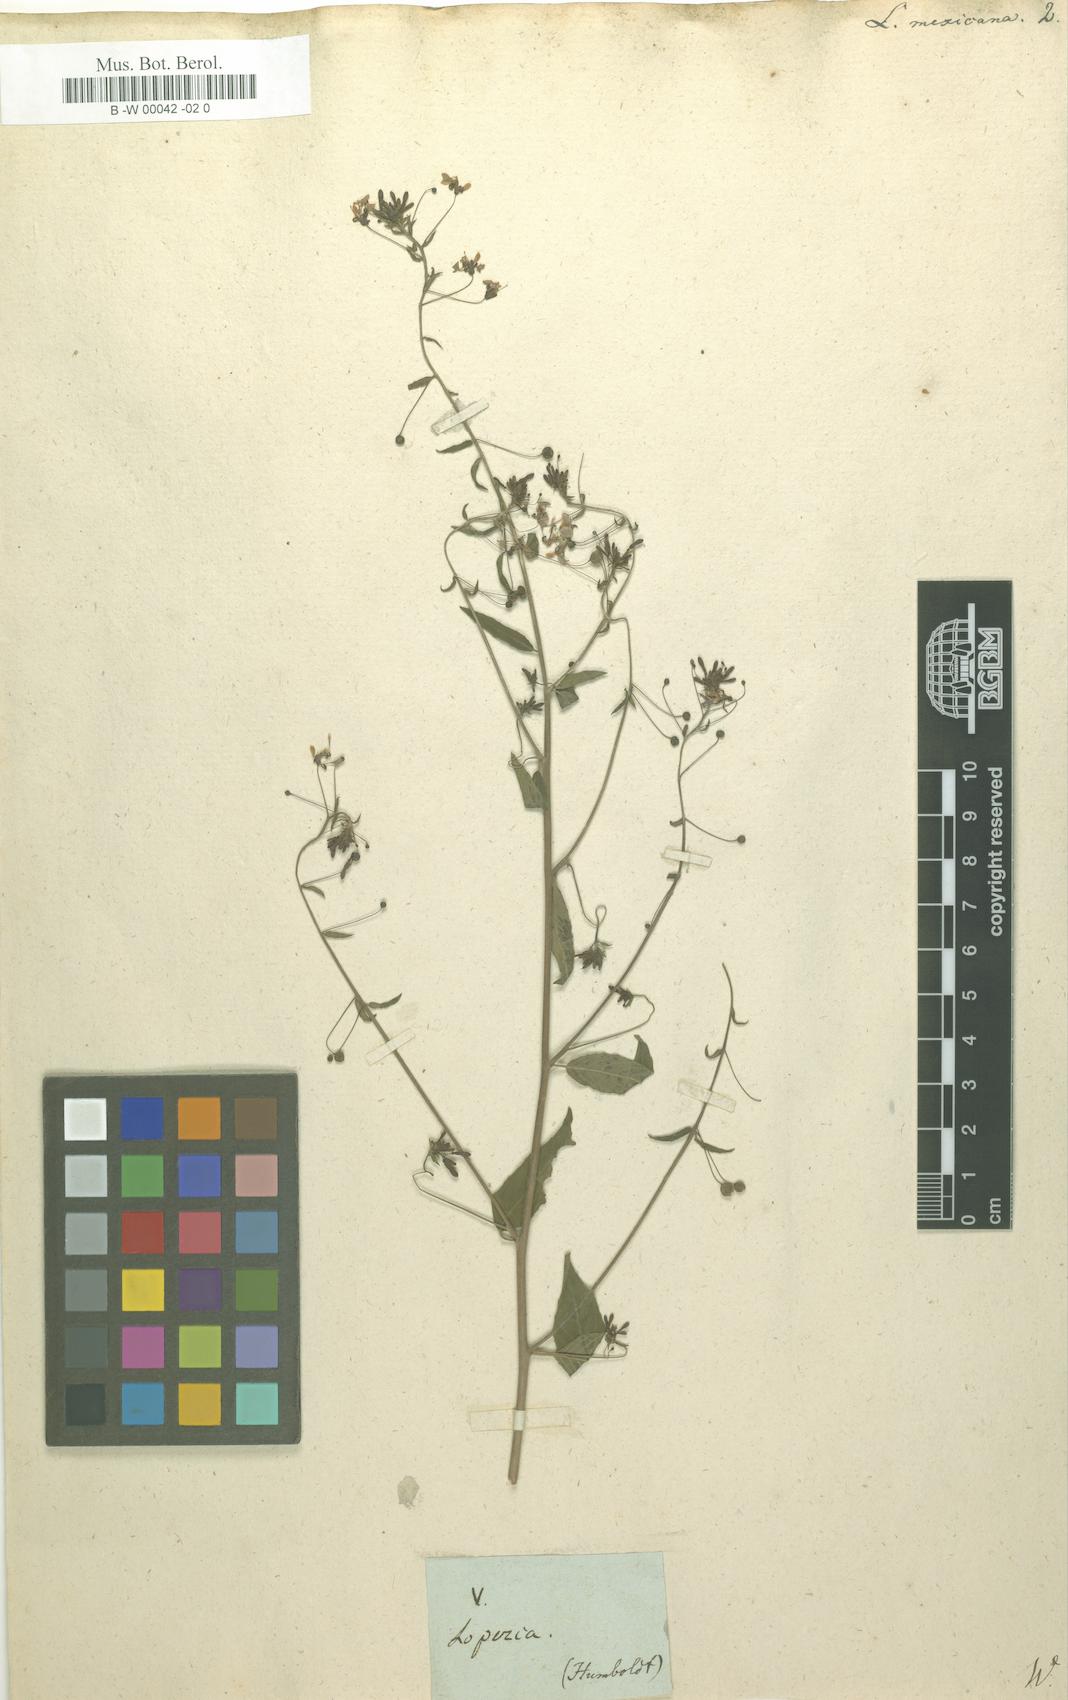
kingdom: Plantae
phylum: Tracheophyta
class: Magnoliopsida
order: Myrtales
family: Onagraceae
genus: Lopezia
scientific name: Lopezia racemosa
